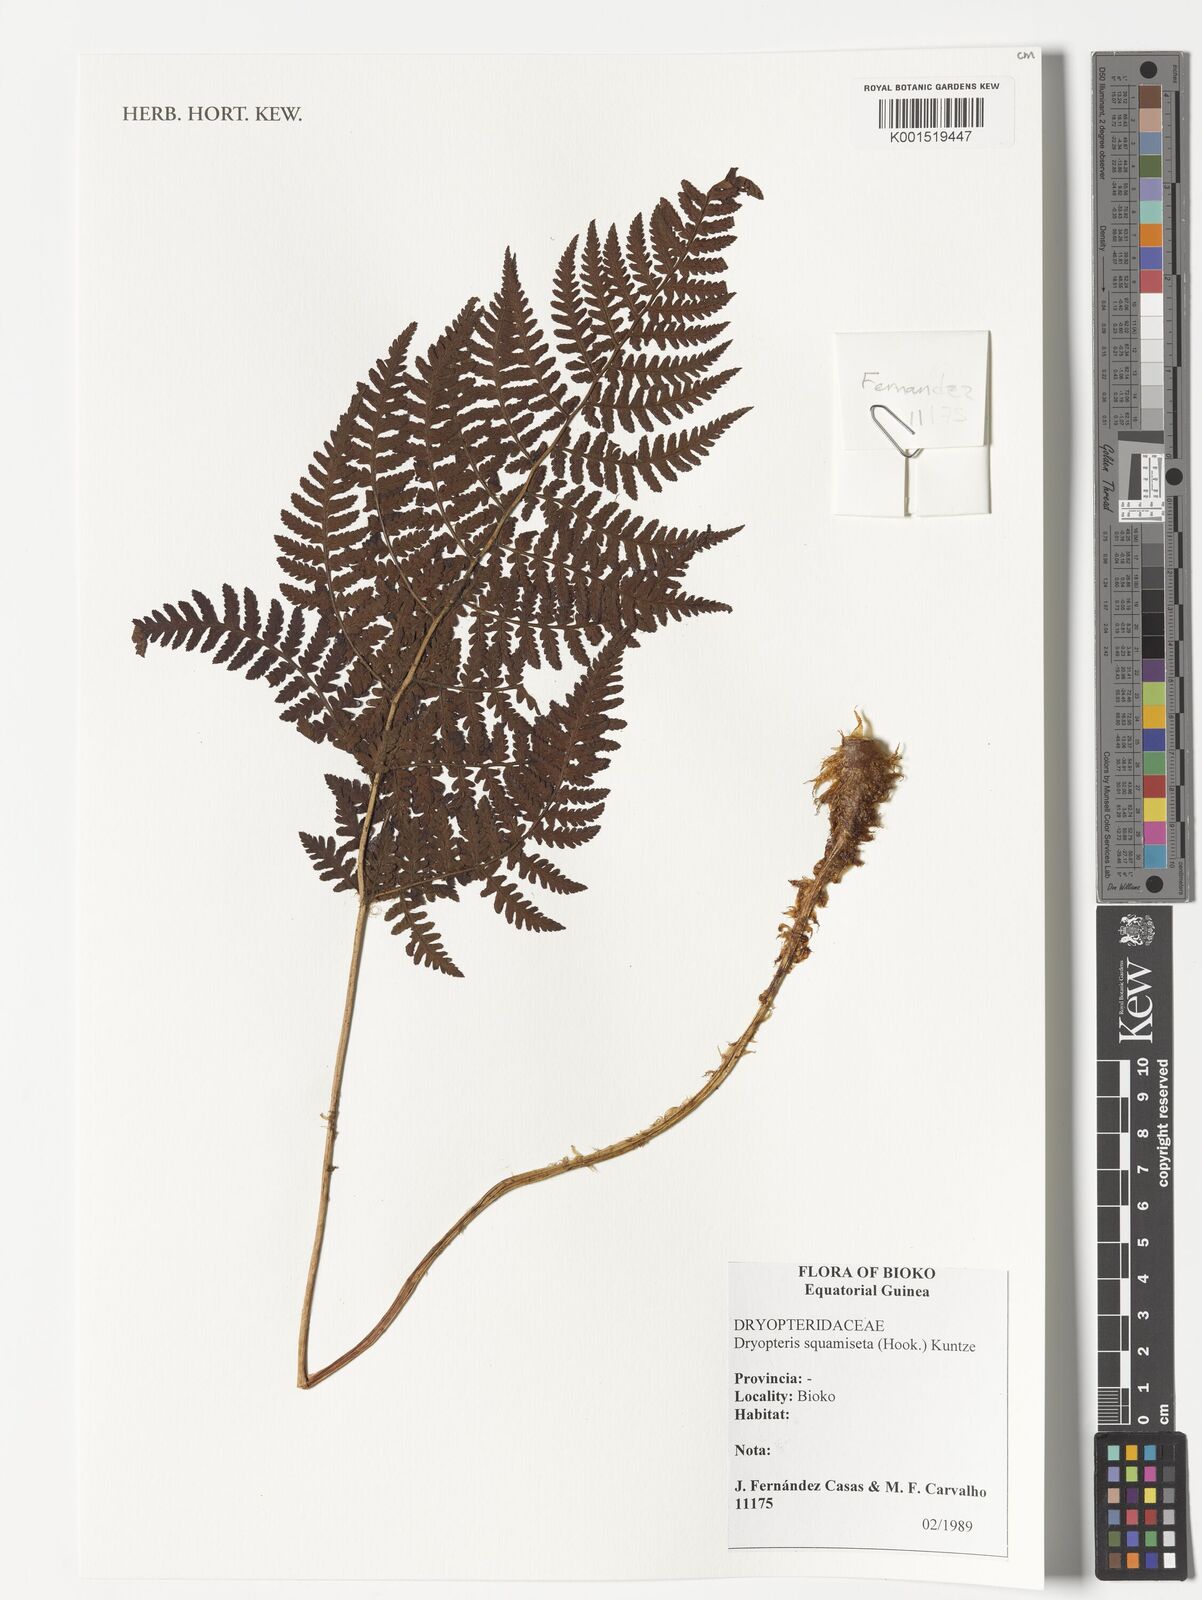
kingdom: Plantae
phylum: Tracheophyta
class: Polypodiopsida
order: Polypodiales
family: Dryopteridaceae
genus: Dryopteris
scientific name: Dryopteris squamiseta
